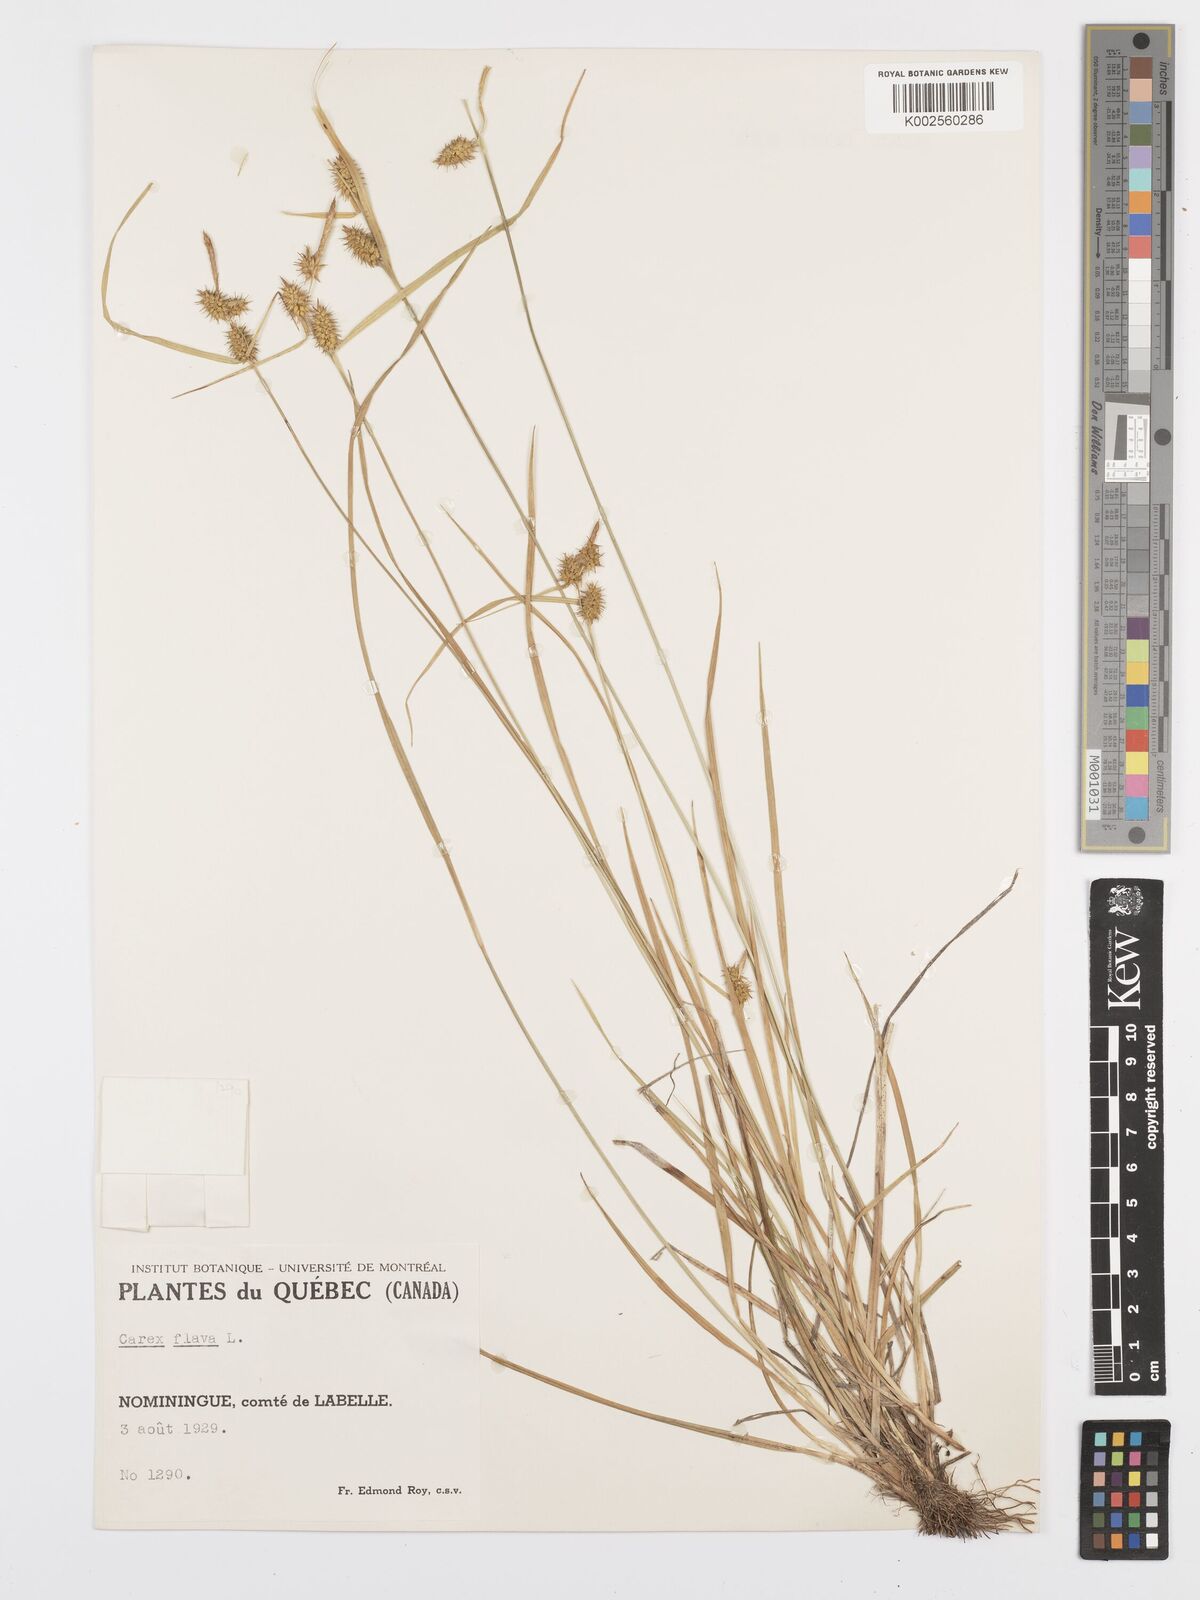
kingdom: Plantae
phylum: Tracheophyta
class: Liliopsida
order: Poales
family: Cyperaceae
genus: Carex
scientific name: Carex flava
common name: Large yellow-sedge
